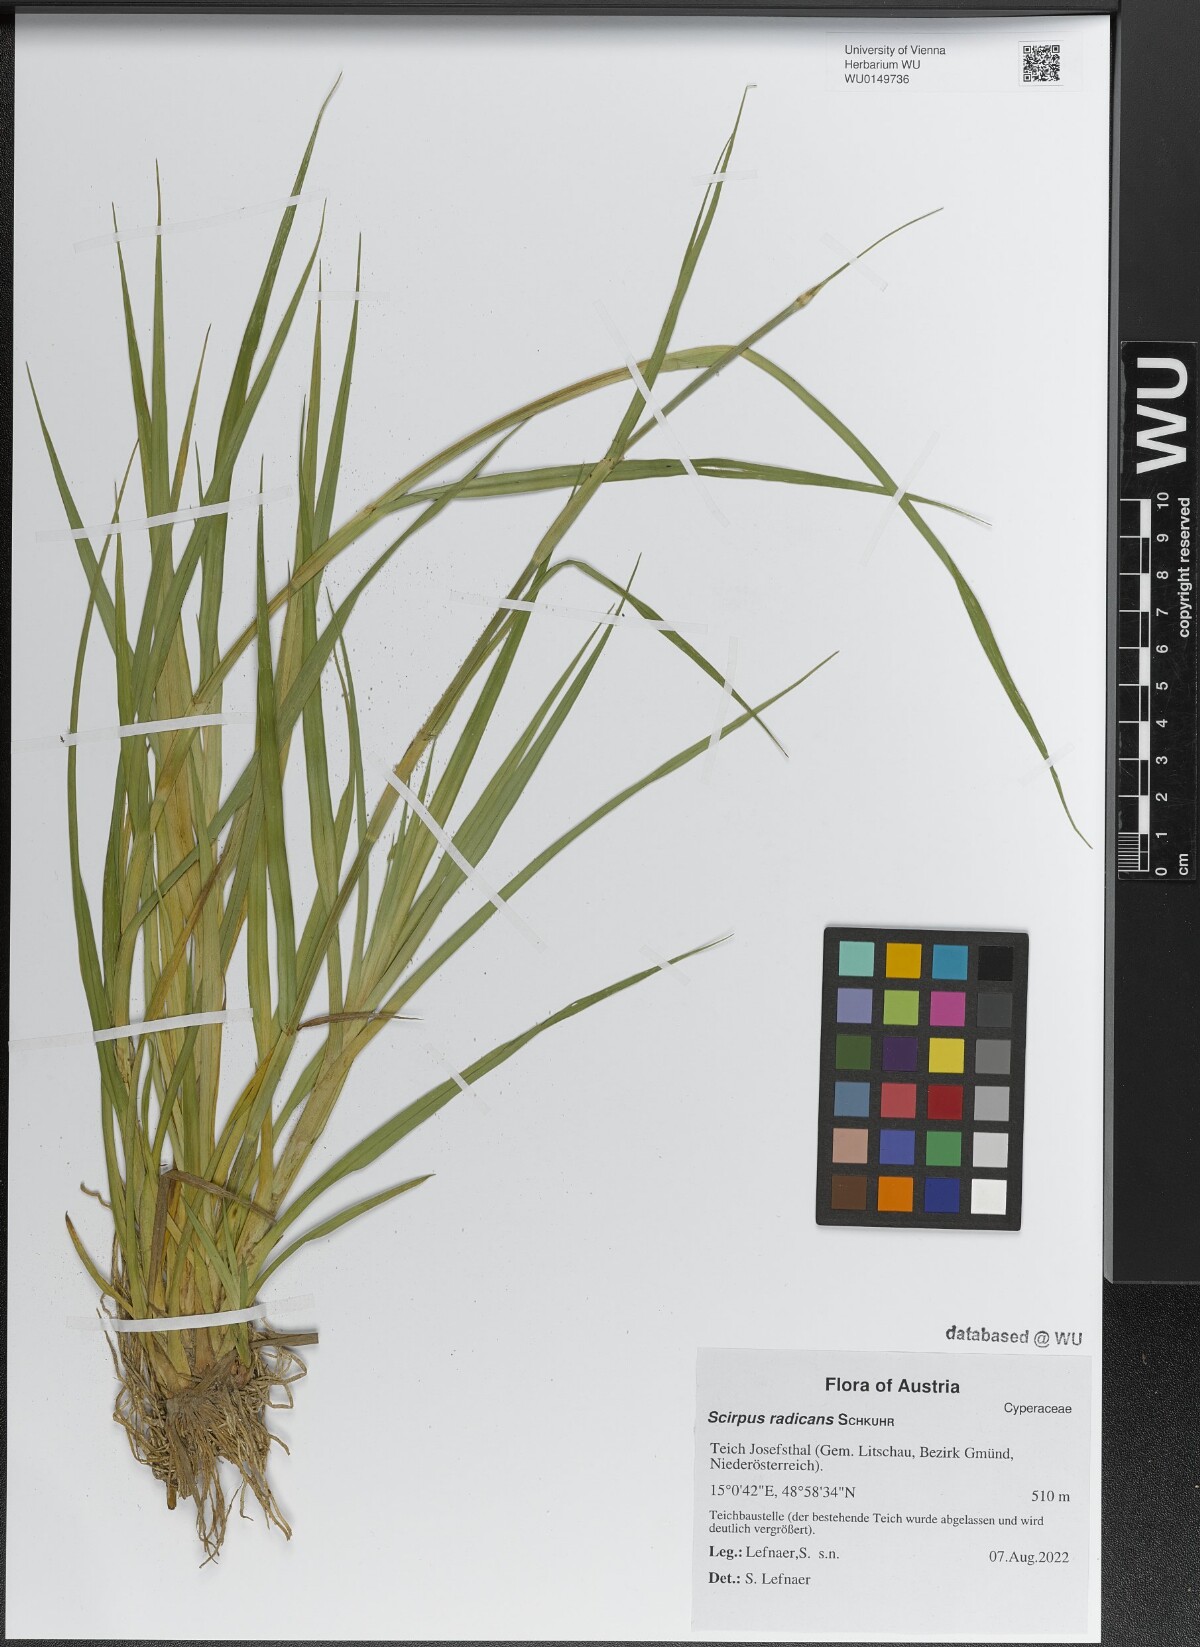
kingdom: Plantae
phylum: Tracheophyta
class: Liliopsida
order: Poales
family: Cyperaceae
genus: Scirpus
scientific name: Scirpus radicans
